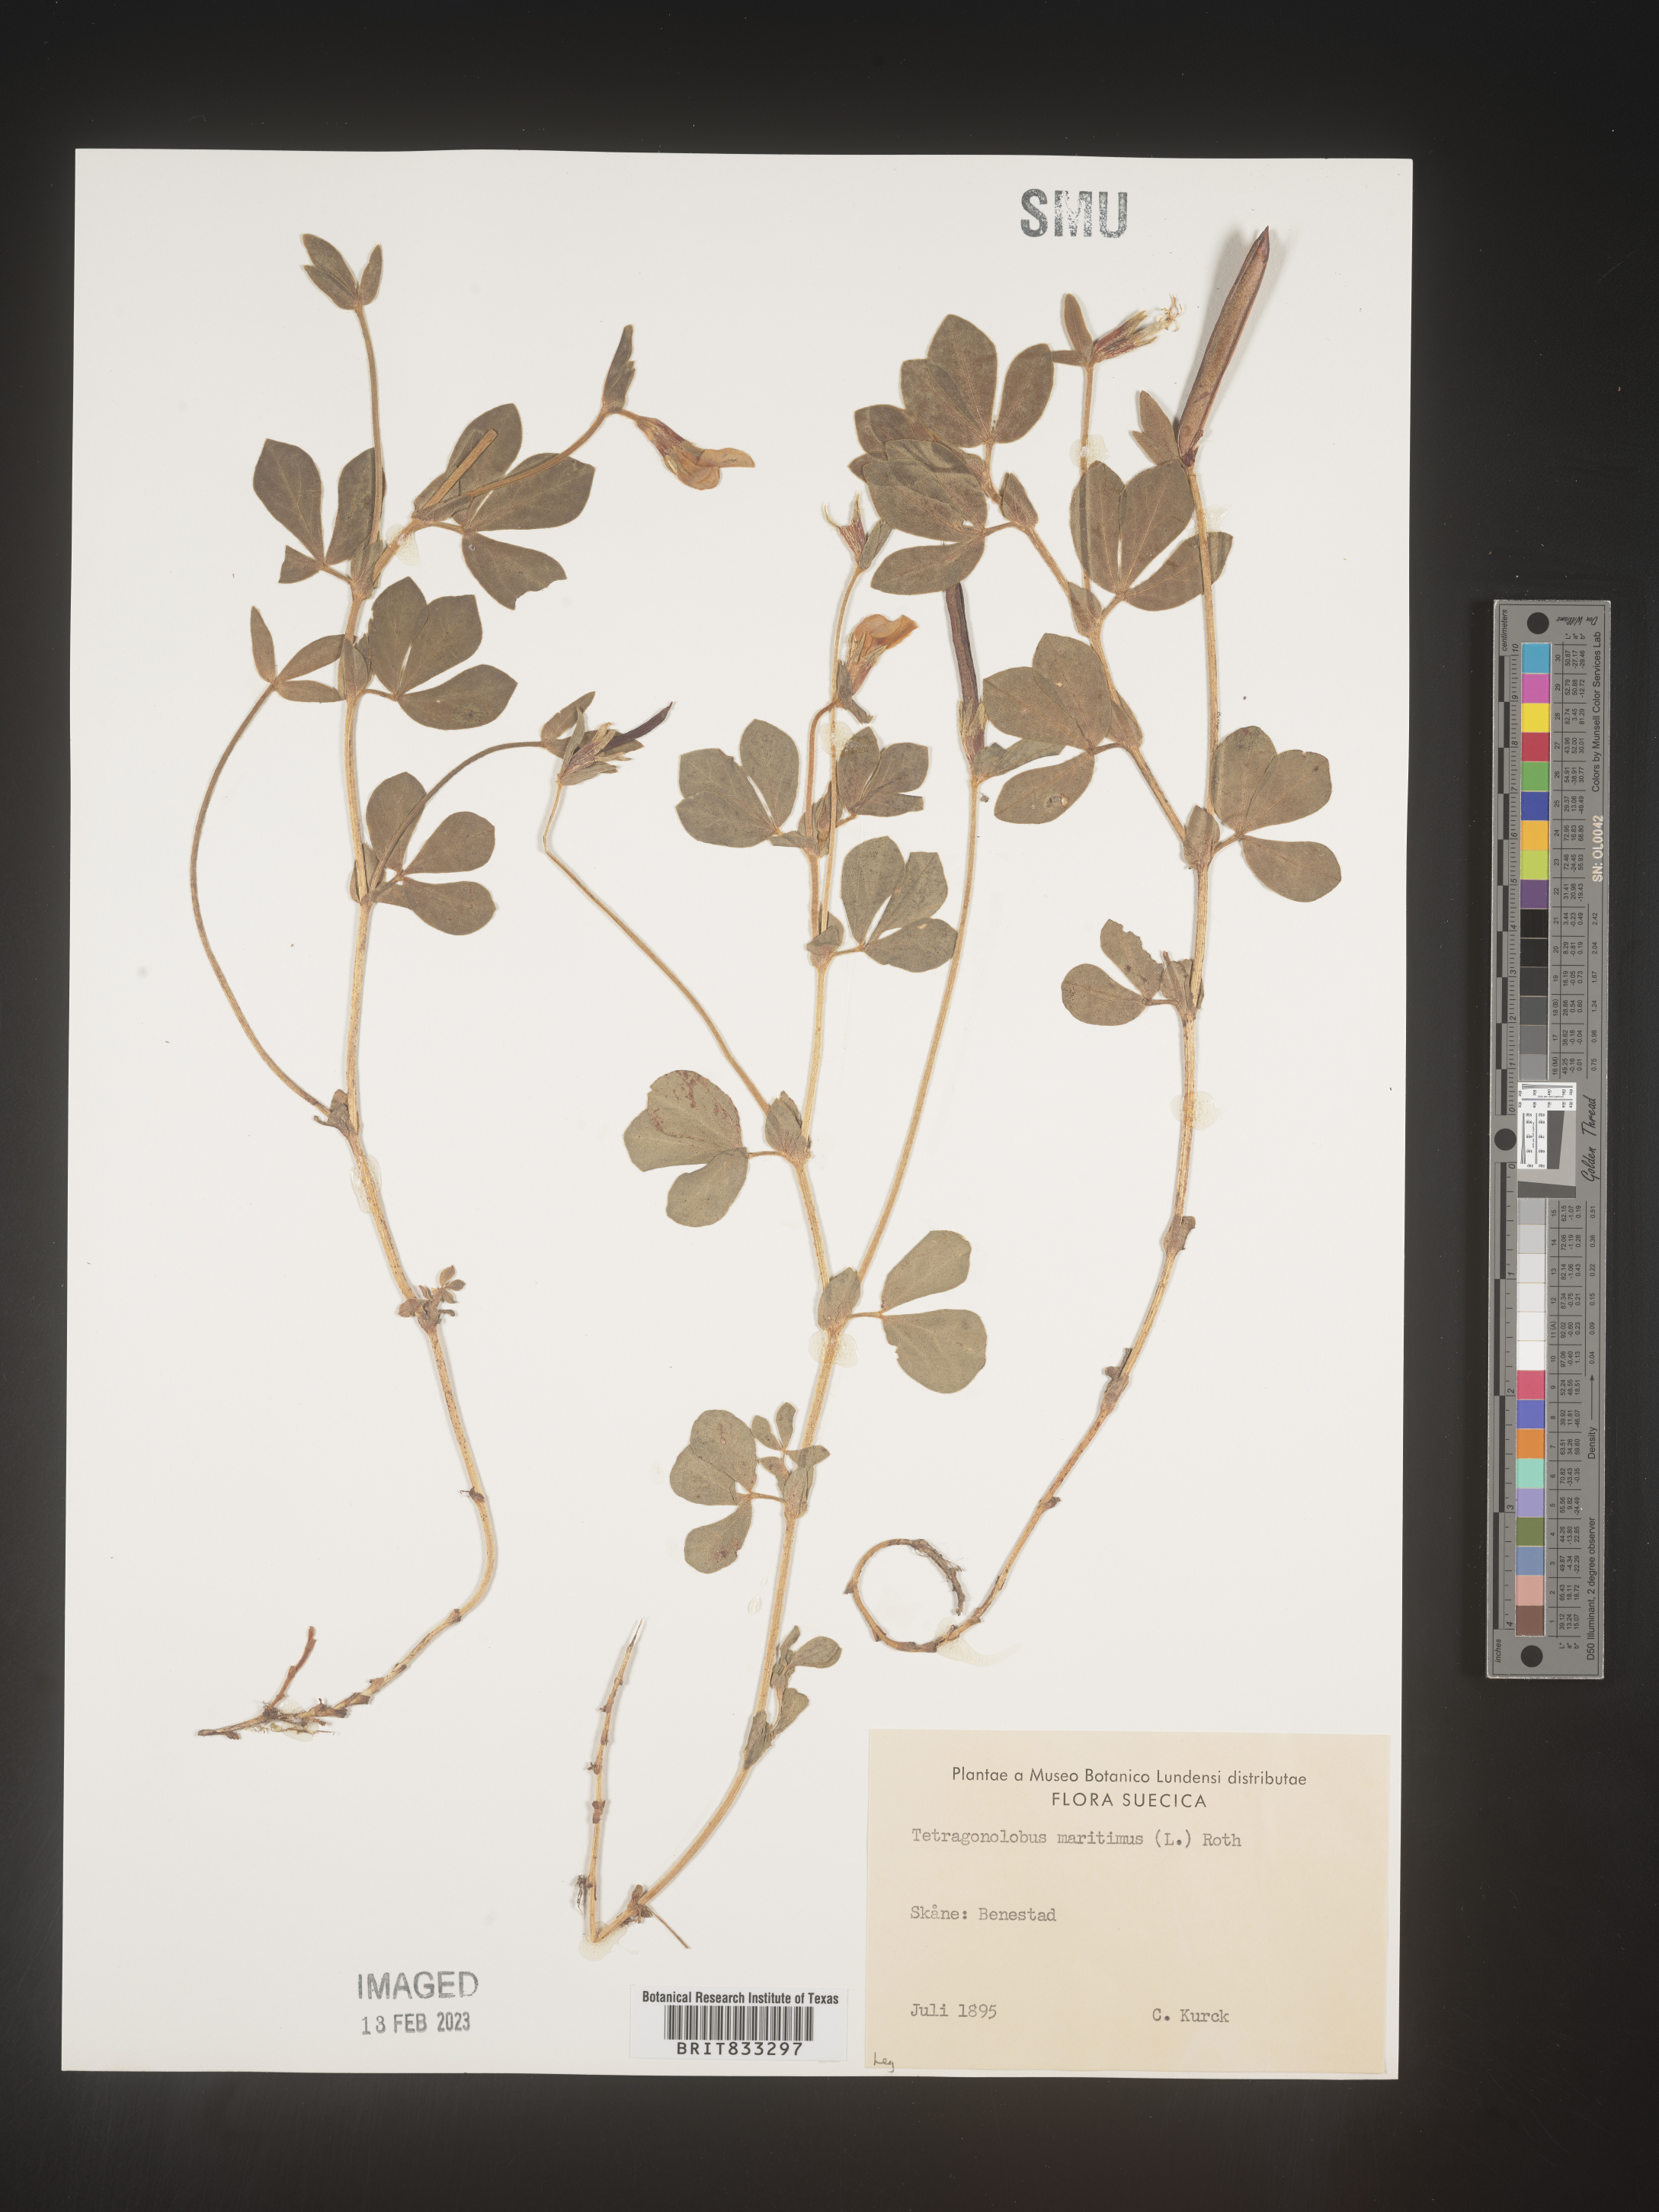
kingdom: Plantae
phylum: Tracheophyta
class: Magnoliopsida
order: Fabales
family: Fabaceae
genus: Lotus
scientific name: Lotus
